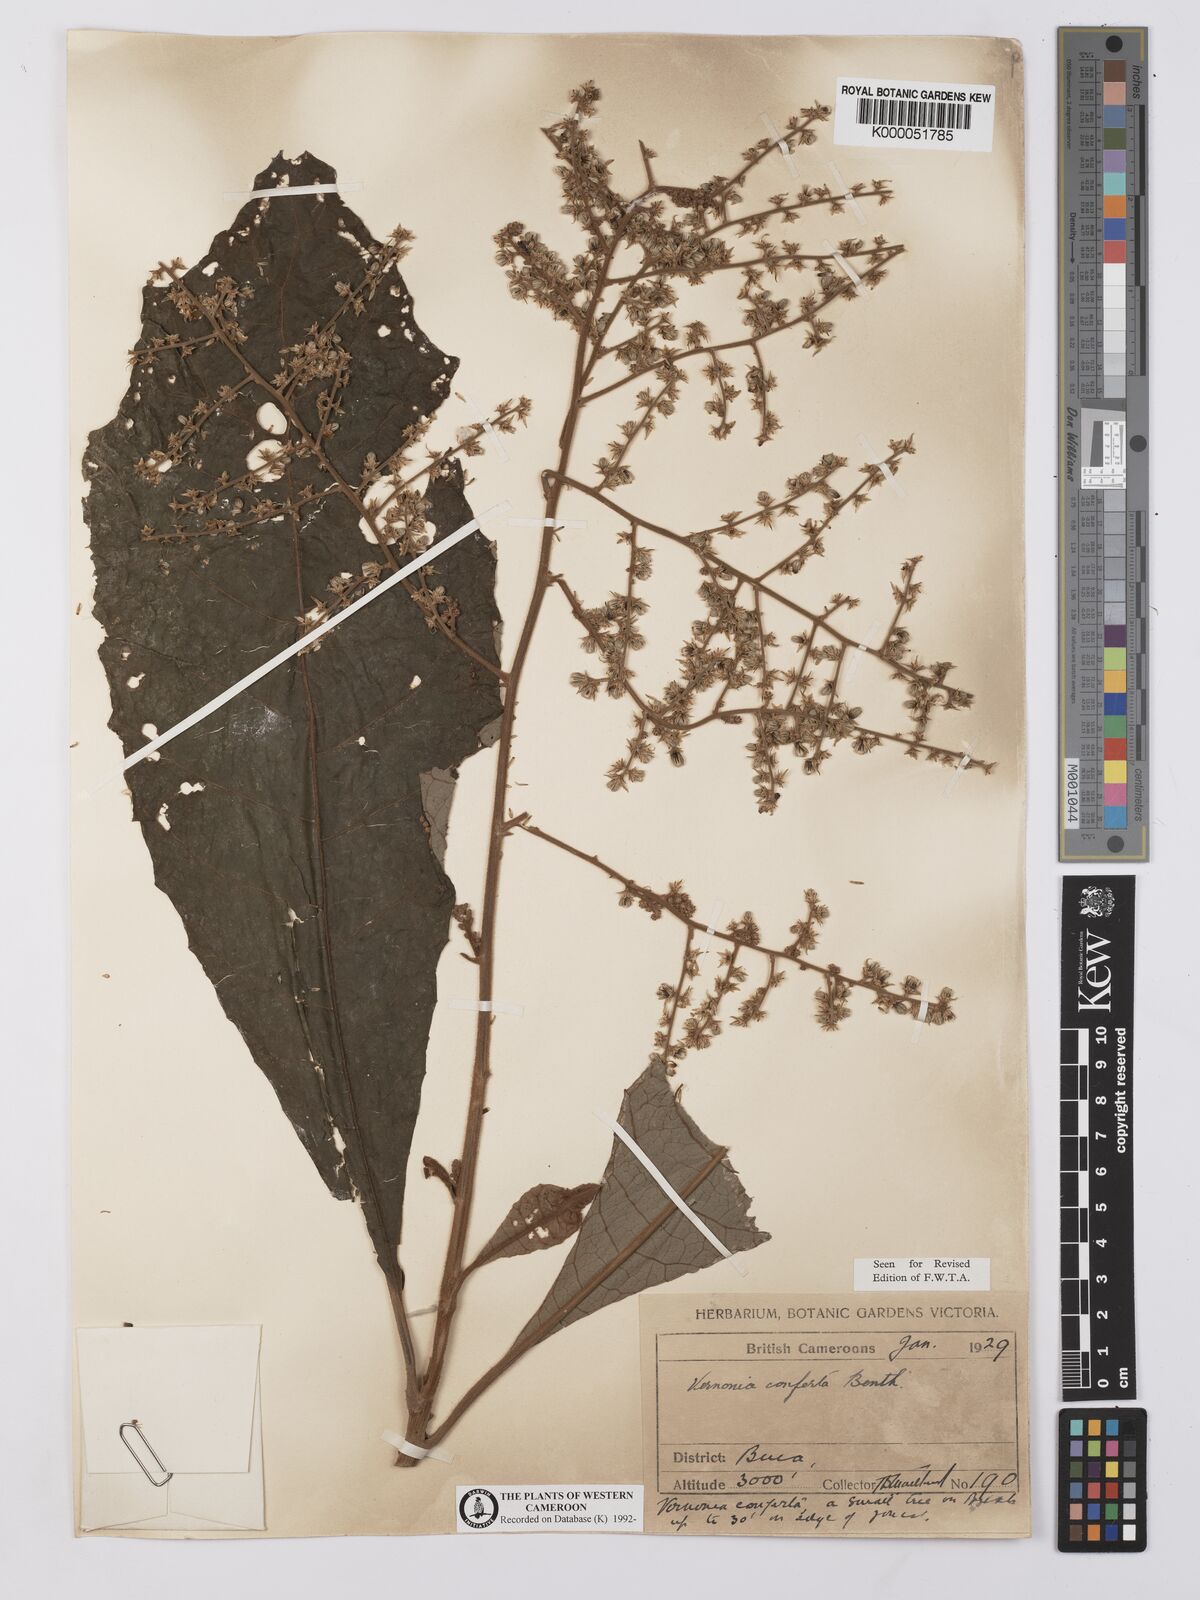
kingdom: Plantae
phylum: Tracheophyta
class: Magnoliopsida
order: Asterales
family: Asteraceae
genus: Brenandendron
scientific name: Brenandendron donianum
